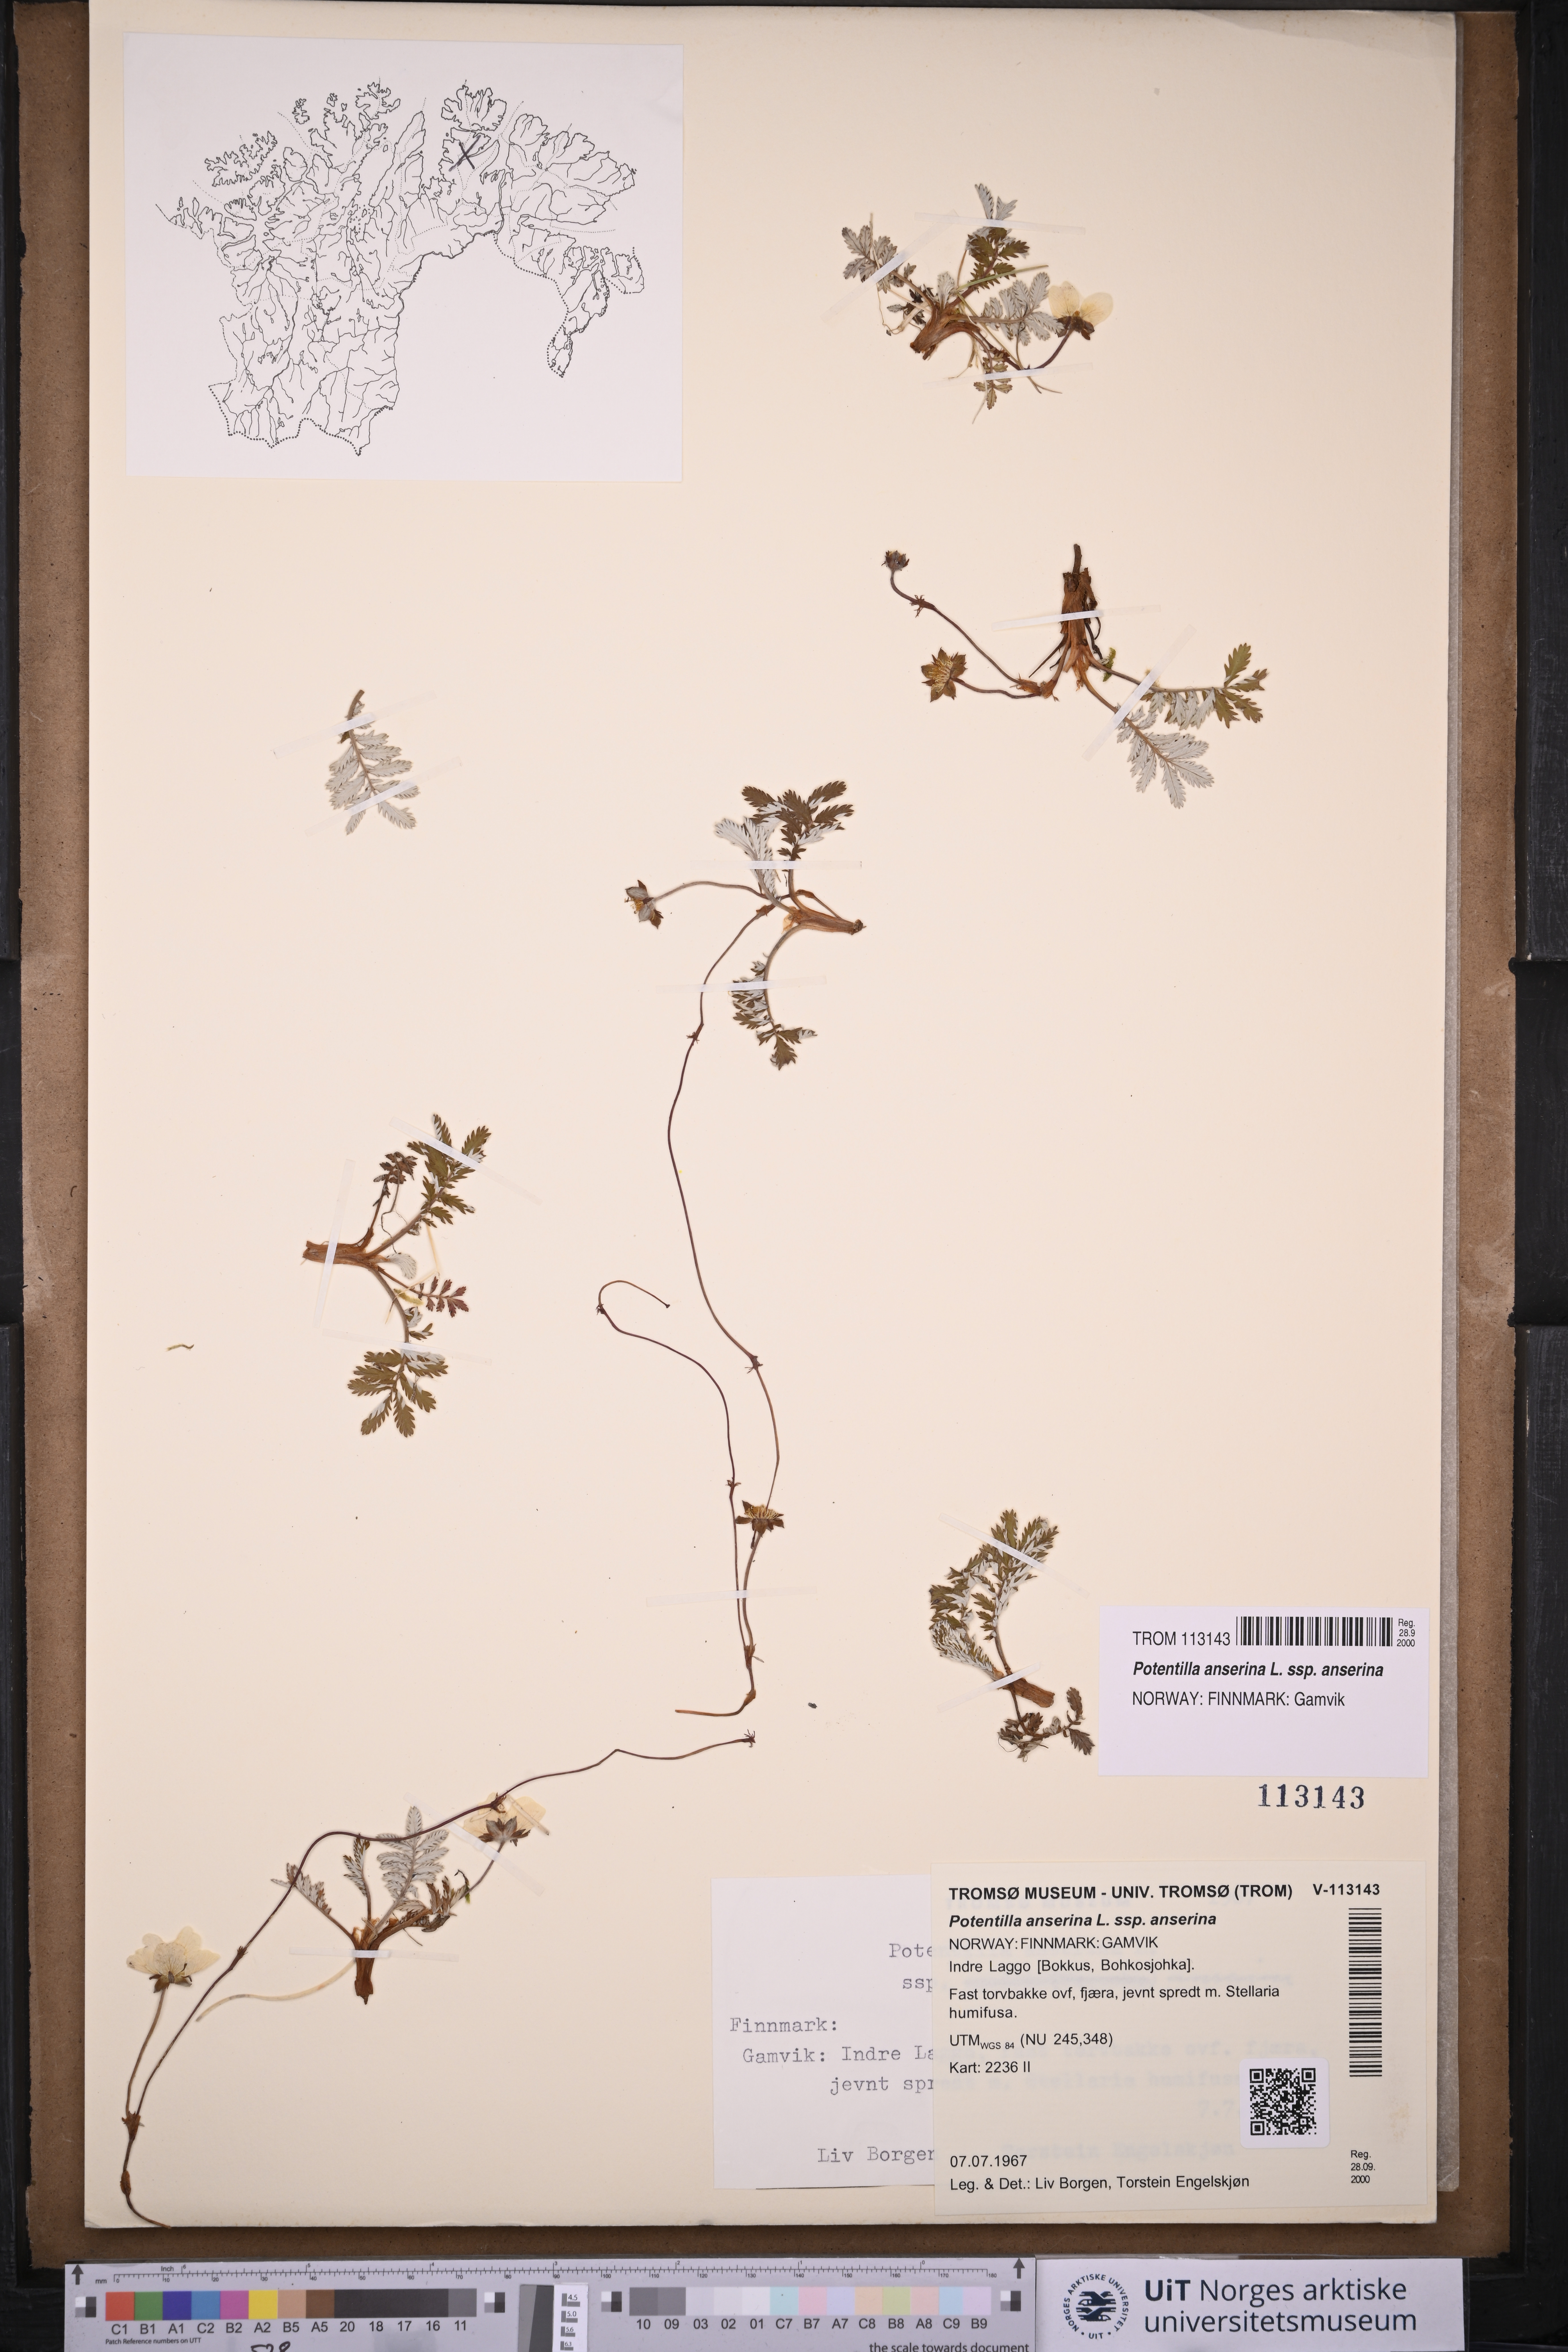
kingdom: Plantae
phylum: Tracheophyta
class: Magnoliopsida
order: Rosales
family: Rosaceae
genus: Argentina
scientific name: Argentina anserina
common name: Common silverweed
